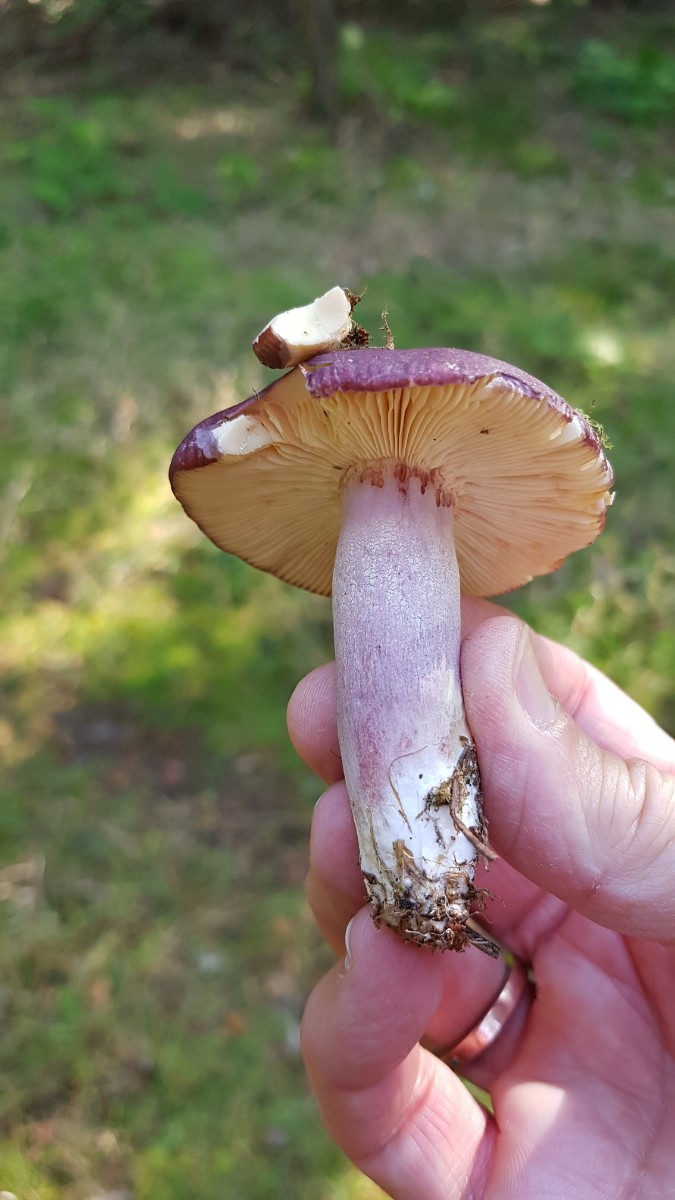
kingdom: Fungi
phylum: Basidiomycota
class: Agaricomycetes
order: Russulales
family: Russulaceae
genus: Russula
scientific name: Russula sardonia
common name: citronbladet skørhat
